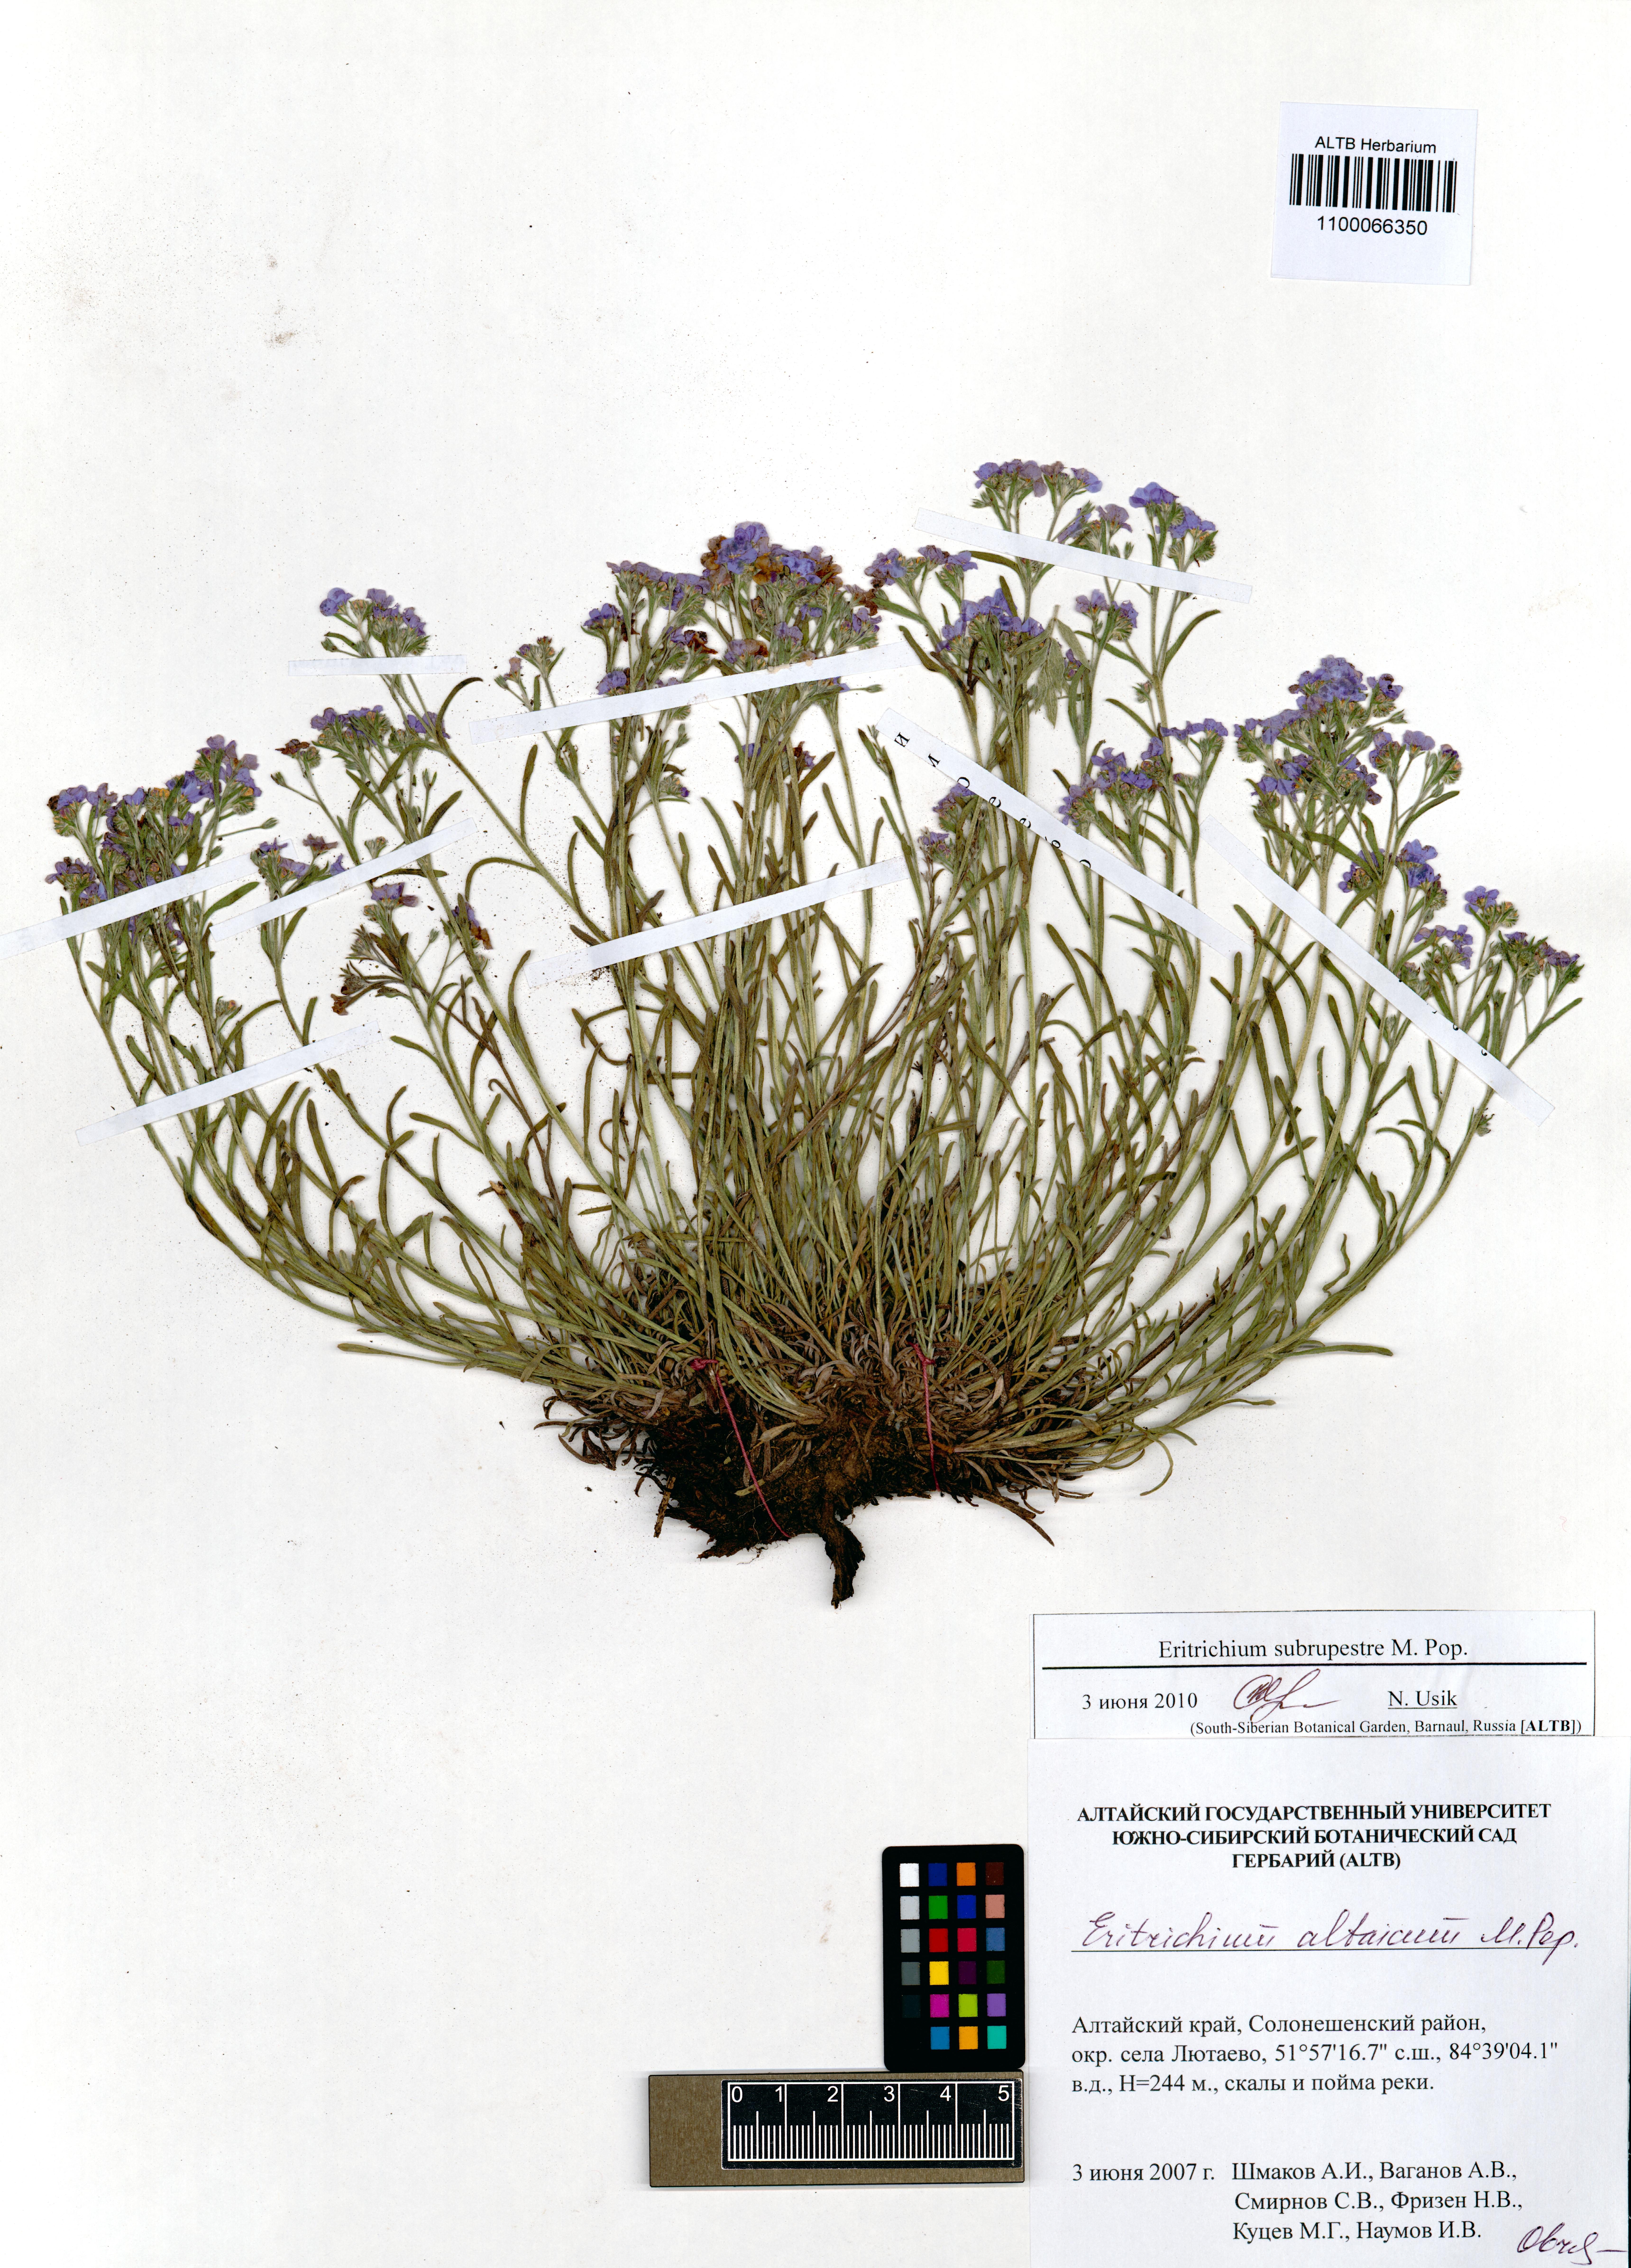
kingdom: Plantae
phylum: Tracheophyta
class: Magnoliopsida
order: Boraginales
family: Boraginaceae
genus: Eritrichium
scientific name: Eritrichium pauciflorum
